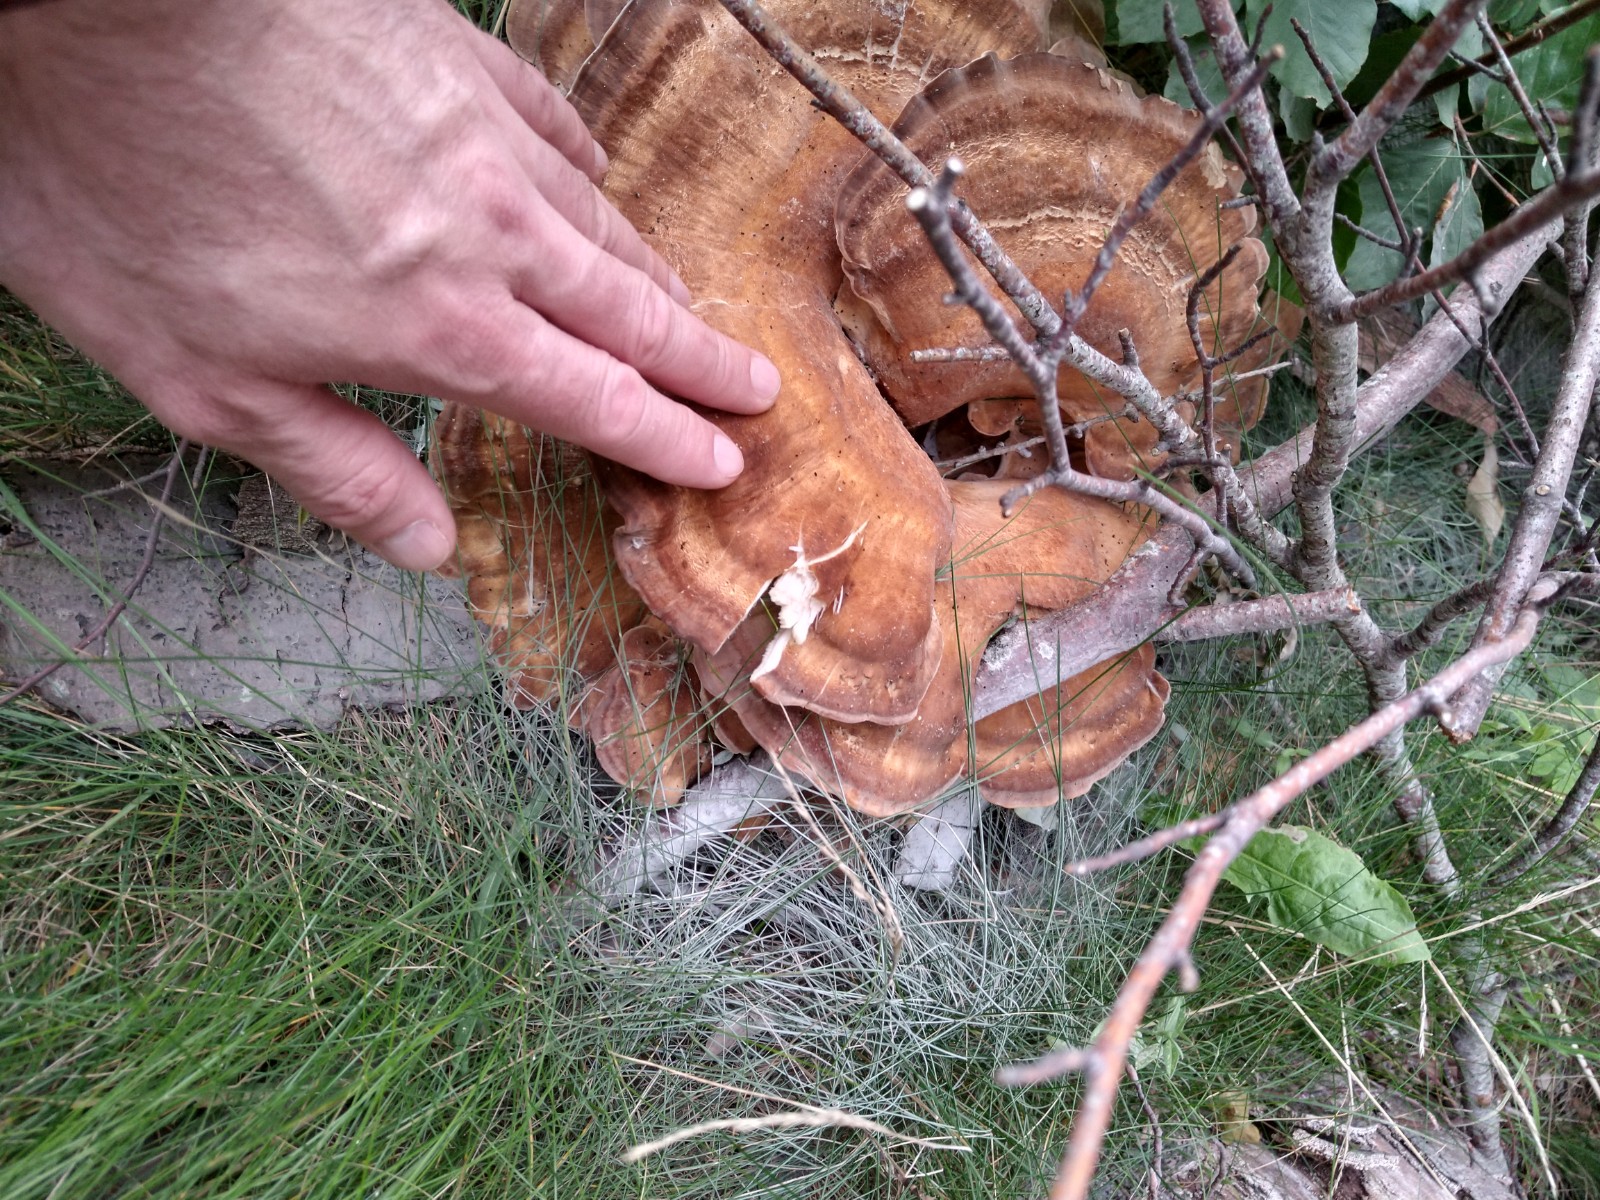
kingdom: Fungi
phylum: Basidiomycota
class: Agaricomycetes
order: Polyporales
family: Meripilaceae
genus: Meripilus
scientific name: Meripilus giganteus
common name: kæmpeporesvamp
